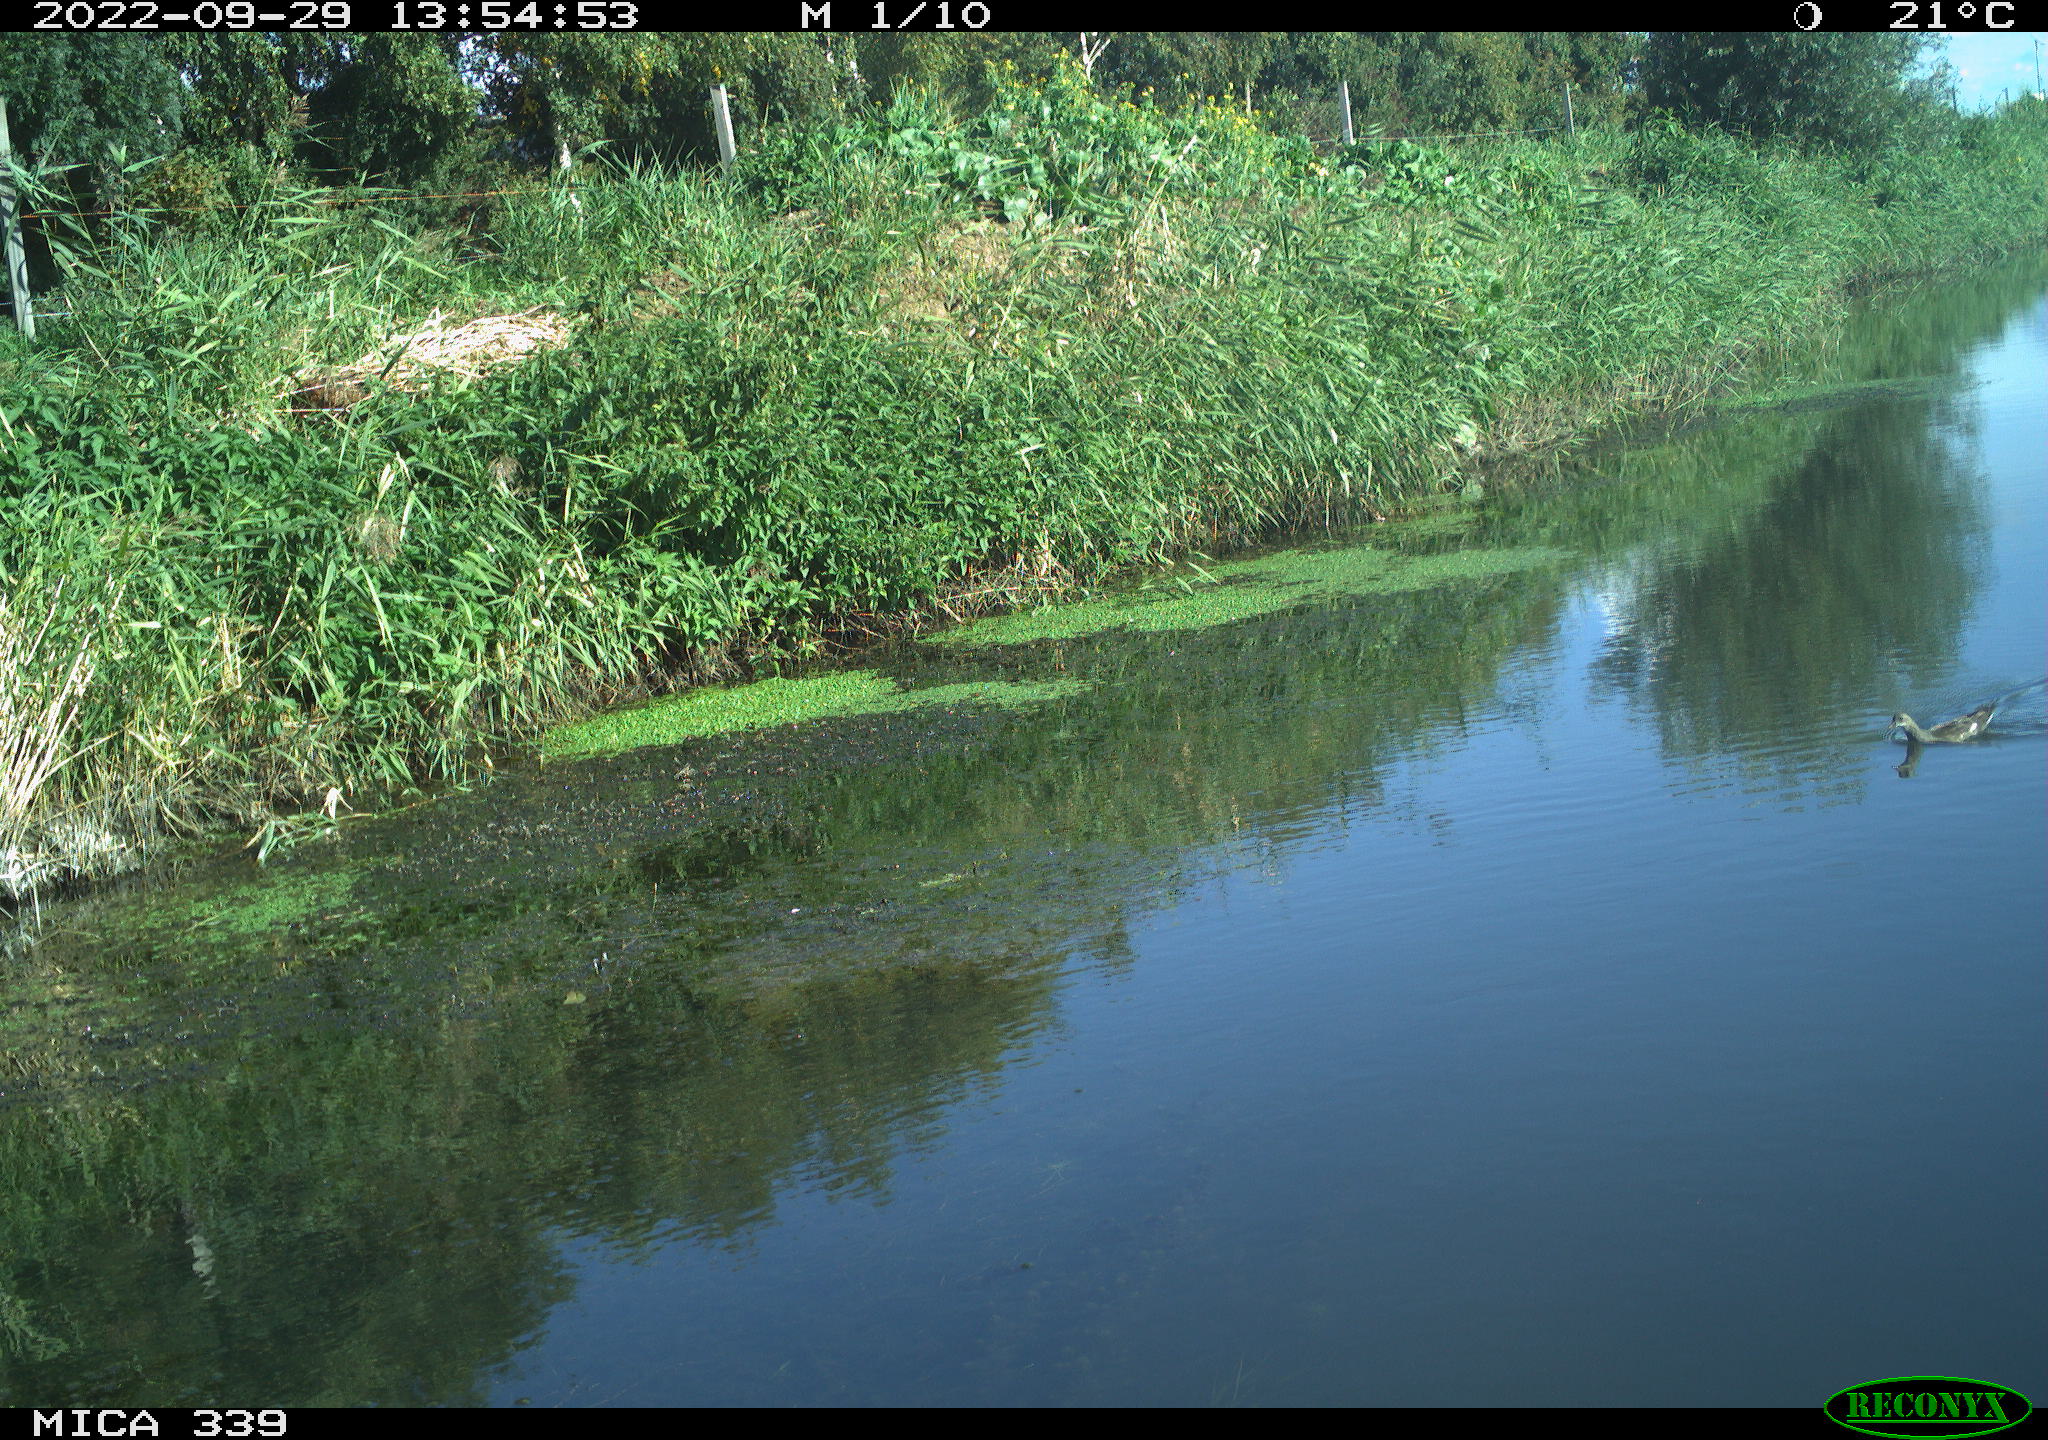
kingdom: Animalia
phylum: Chordata
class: Aves
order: Gruiformes
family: Rallidae
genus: Gallinula
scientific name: Gallinula chloropus
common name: Common moorhen
